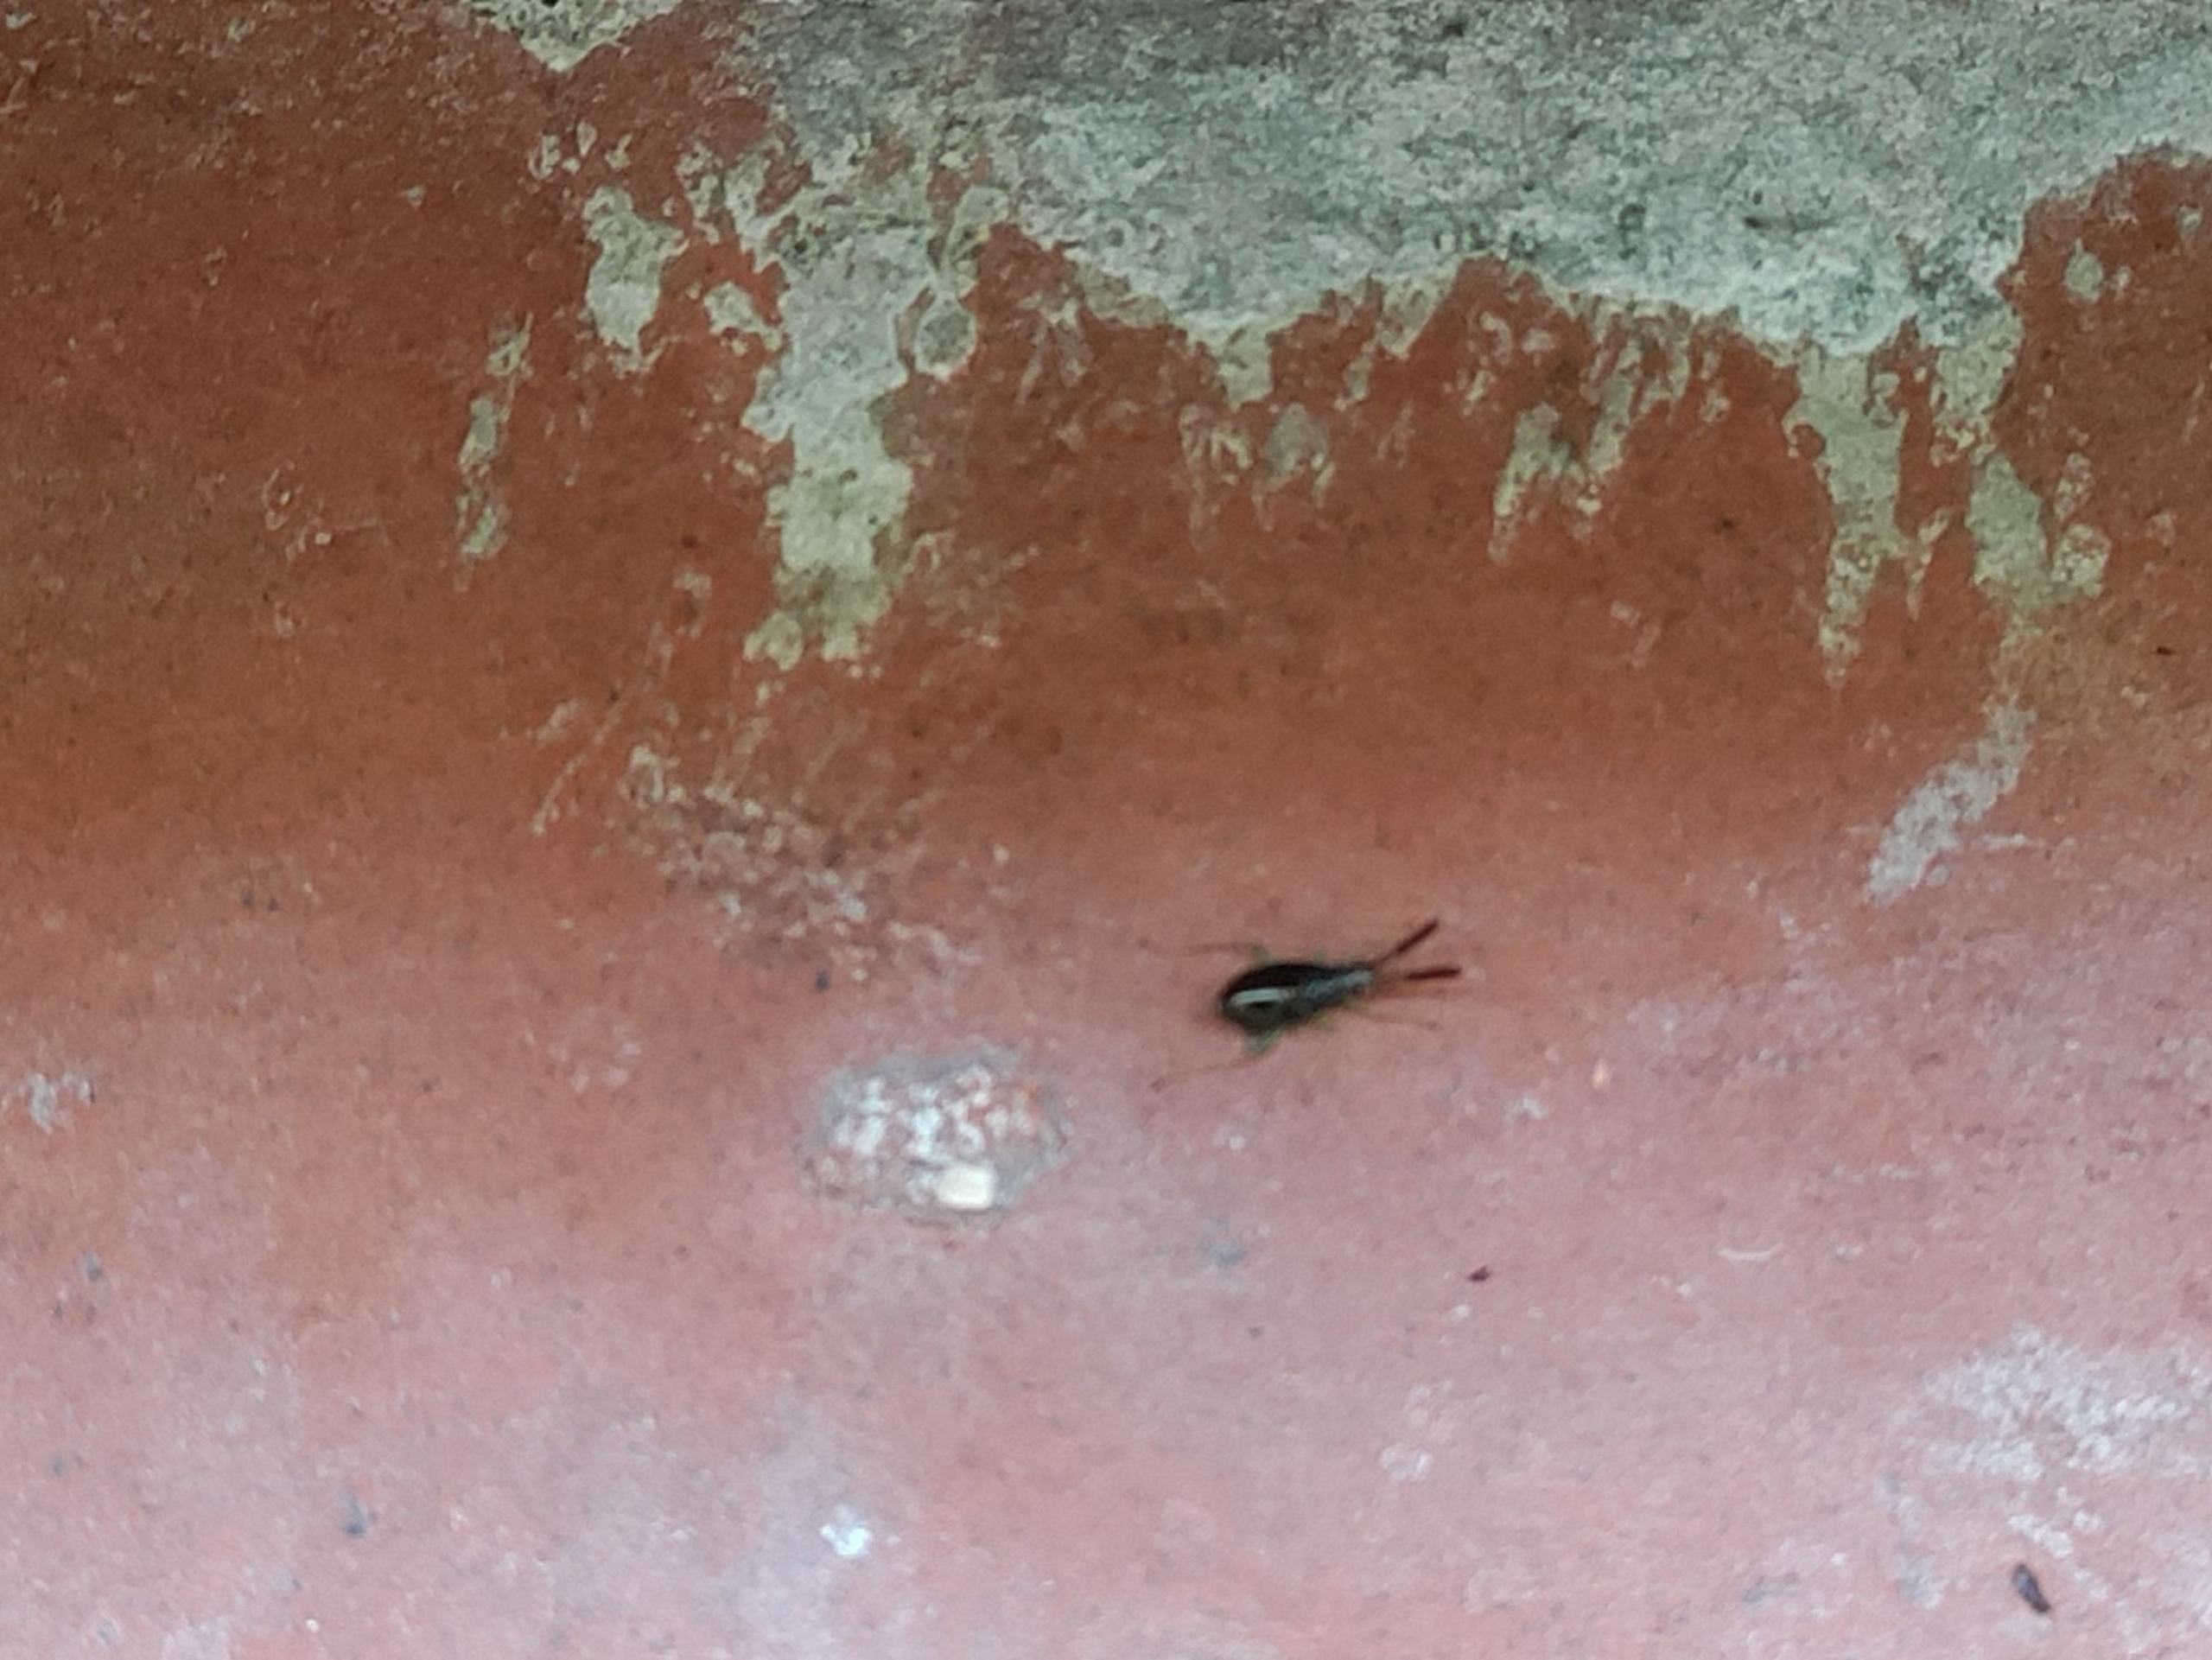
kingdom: Animalia
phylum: Arthropoda
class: Insecta
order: Hemiptera
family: Miridae
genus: Heterotoma
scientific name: Heterotoma planicornis
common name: Køllehornet blomstertæge
